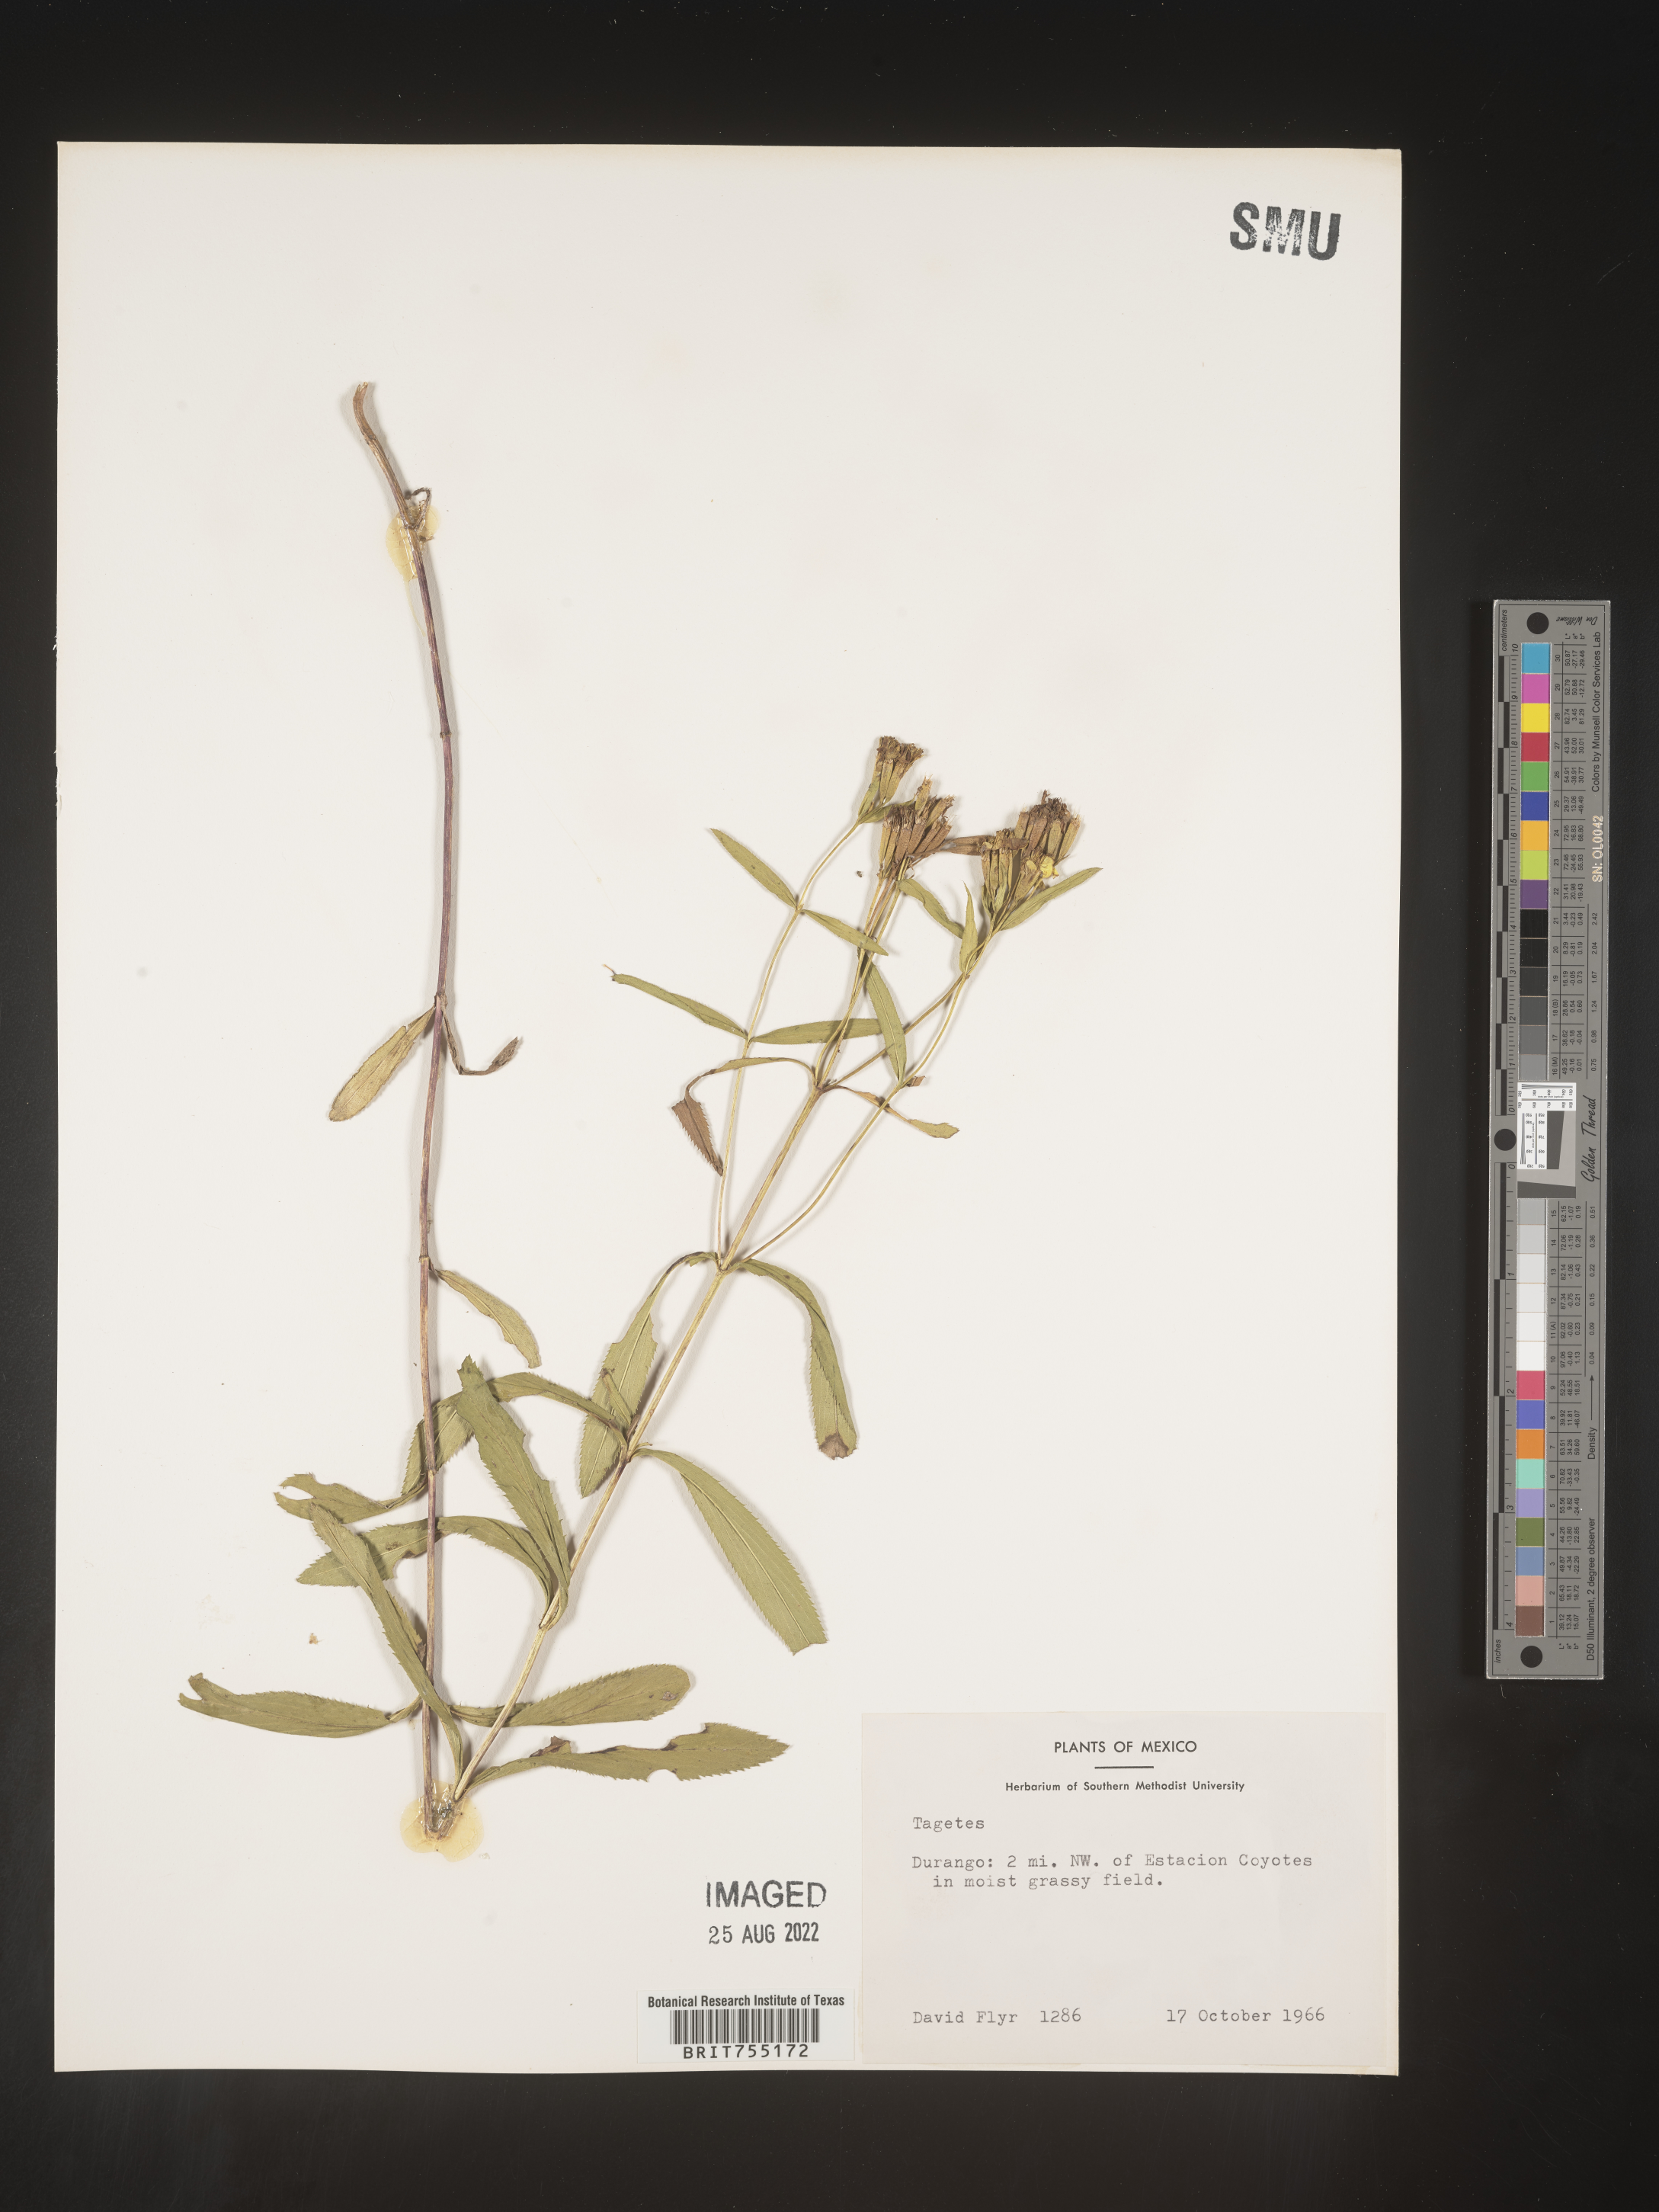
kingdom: Plantae
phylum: Tracheophyta
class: Magnoliopsida
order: Asterales
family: Asteraceae
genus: Tagetes
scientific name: Tagetes
